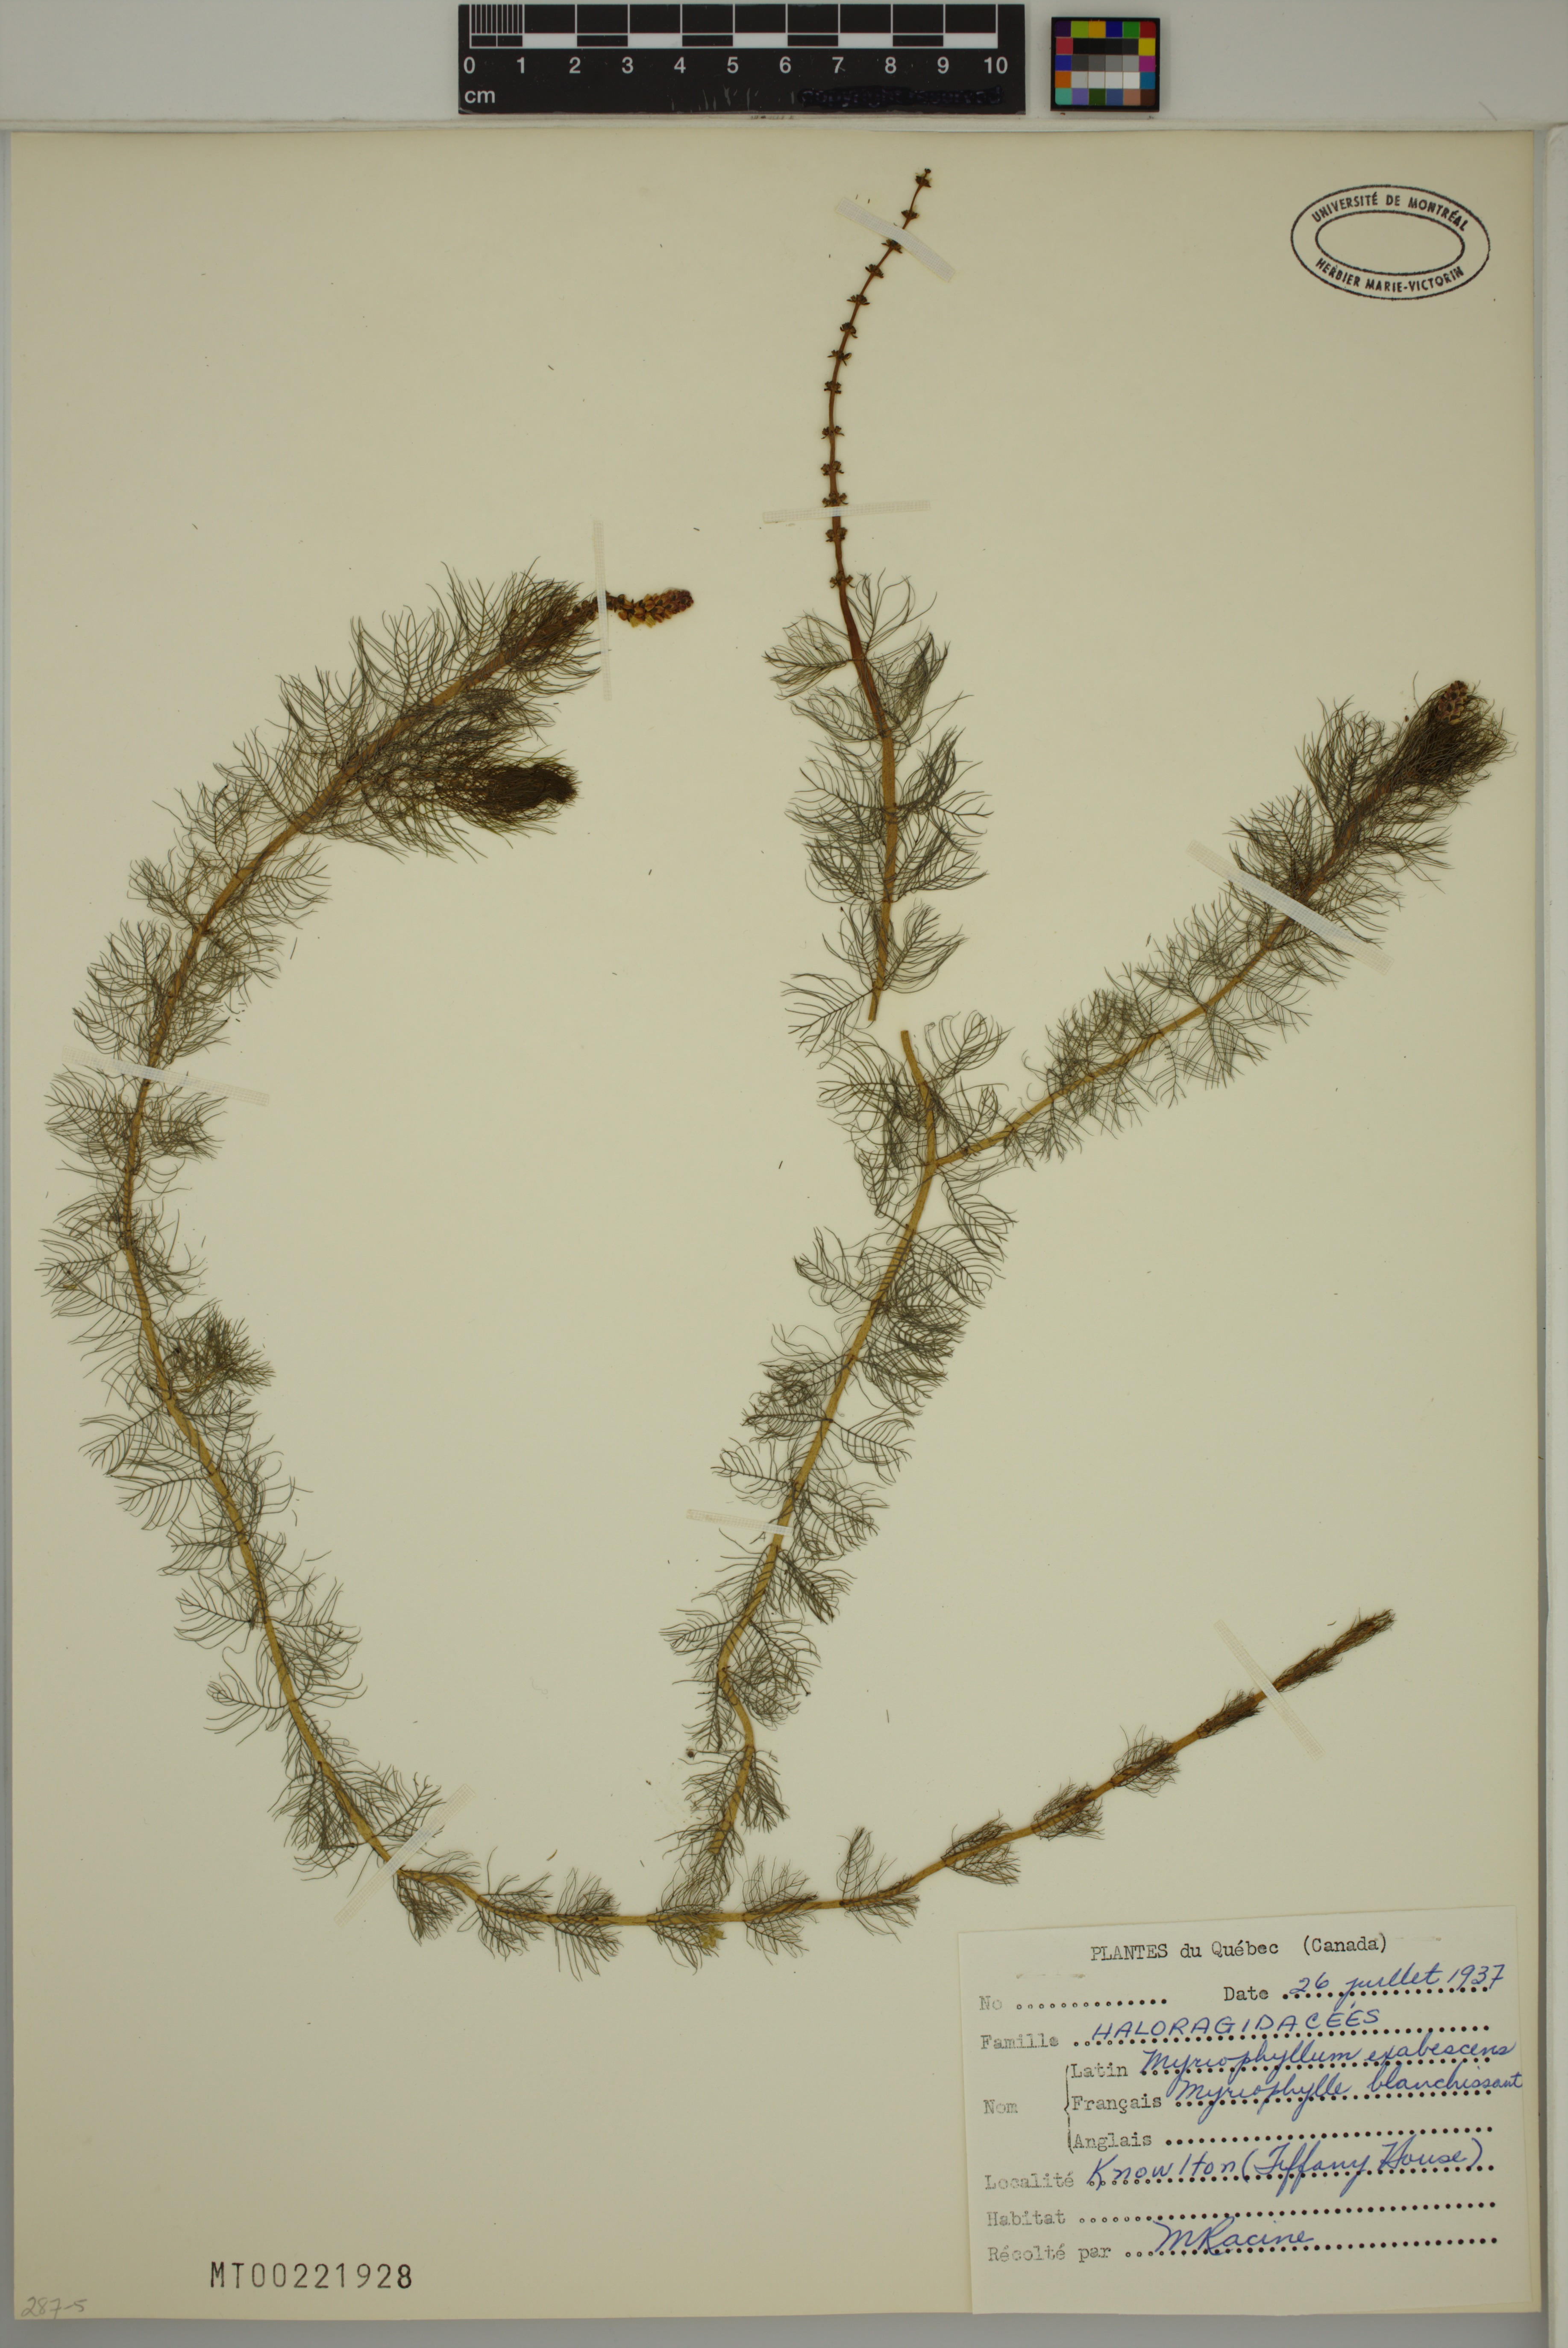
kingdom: Plantae
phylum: Tracheophyta
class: Magnoliopsida
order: Saxifragales
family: Haloragaceae
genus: Myriophyllum
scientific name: Myriophyllum sibiricum
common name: Siberian water-milfoil
